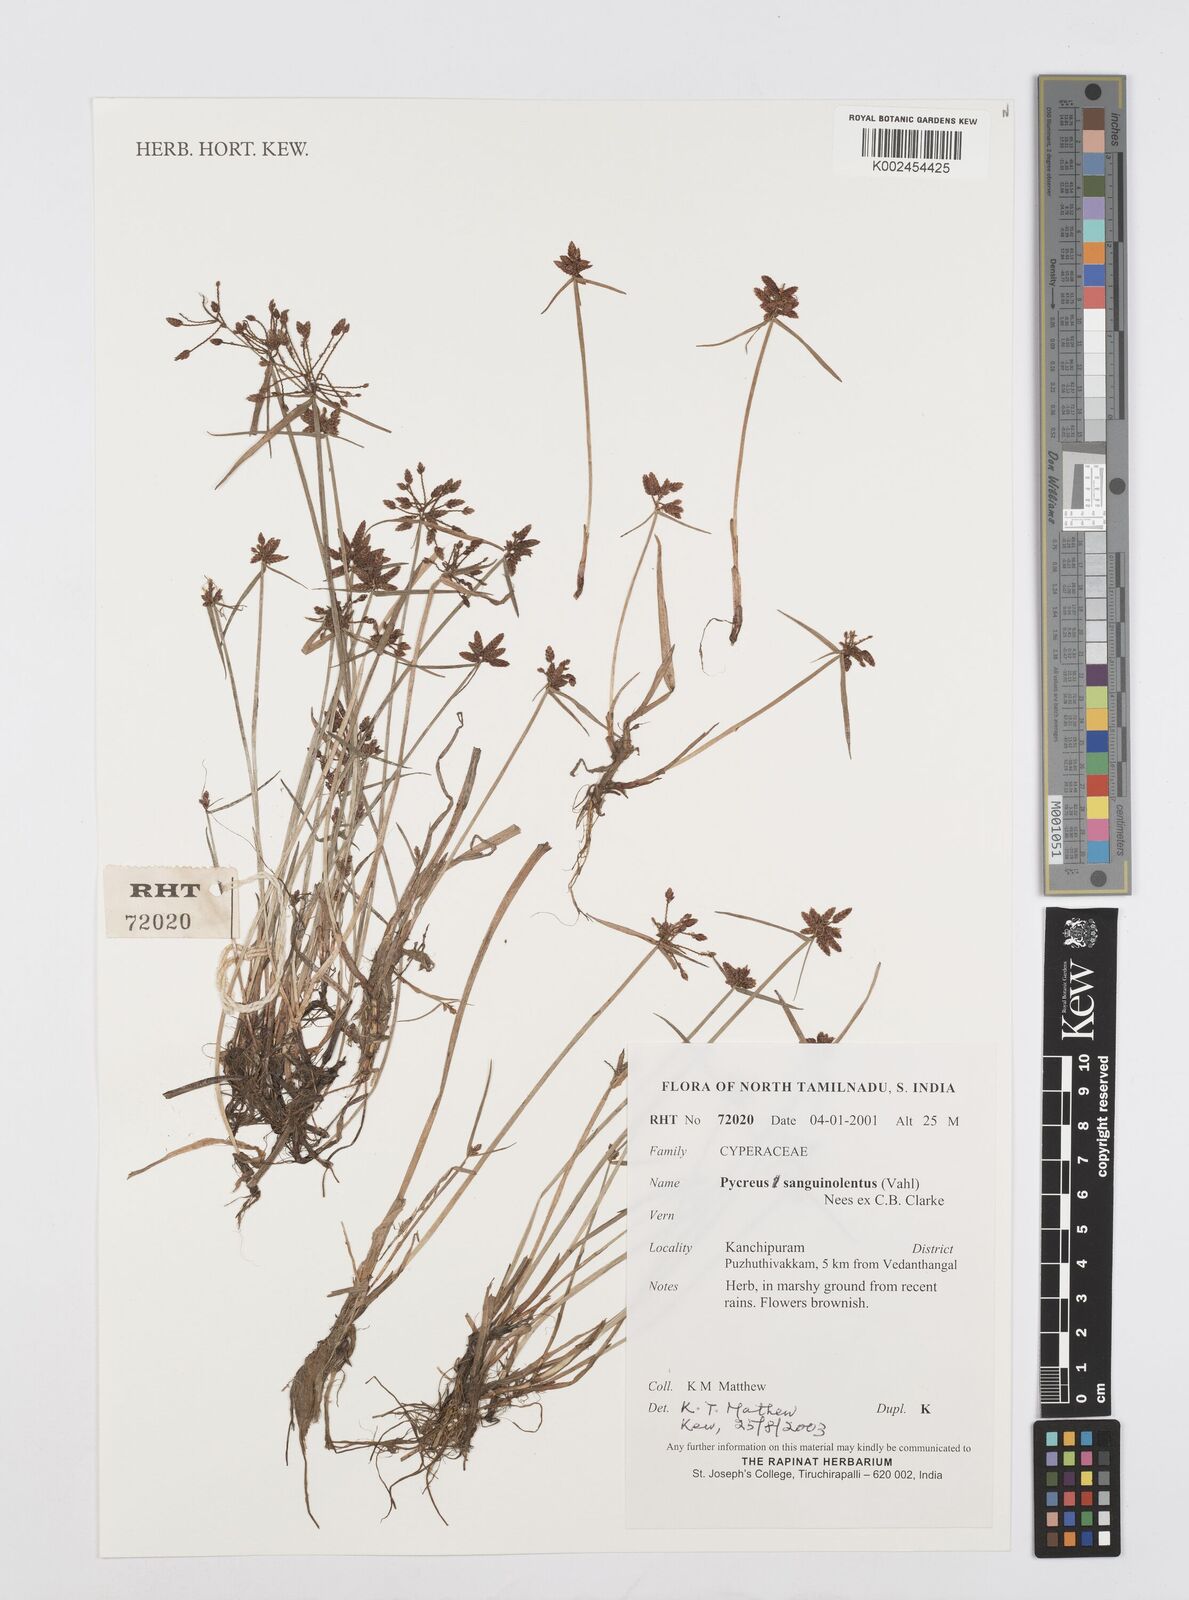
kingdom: Plantae
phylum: Tracheophyta
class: Liliopsida
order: Poales
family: Cyperaceae
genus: Cyperus
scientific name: Cyperus sanguinolentus
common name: Purpleglume flatsedge
